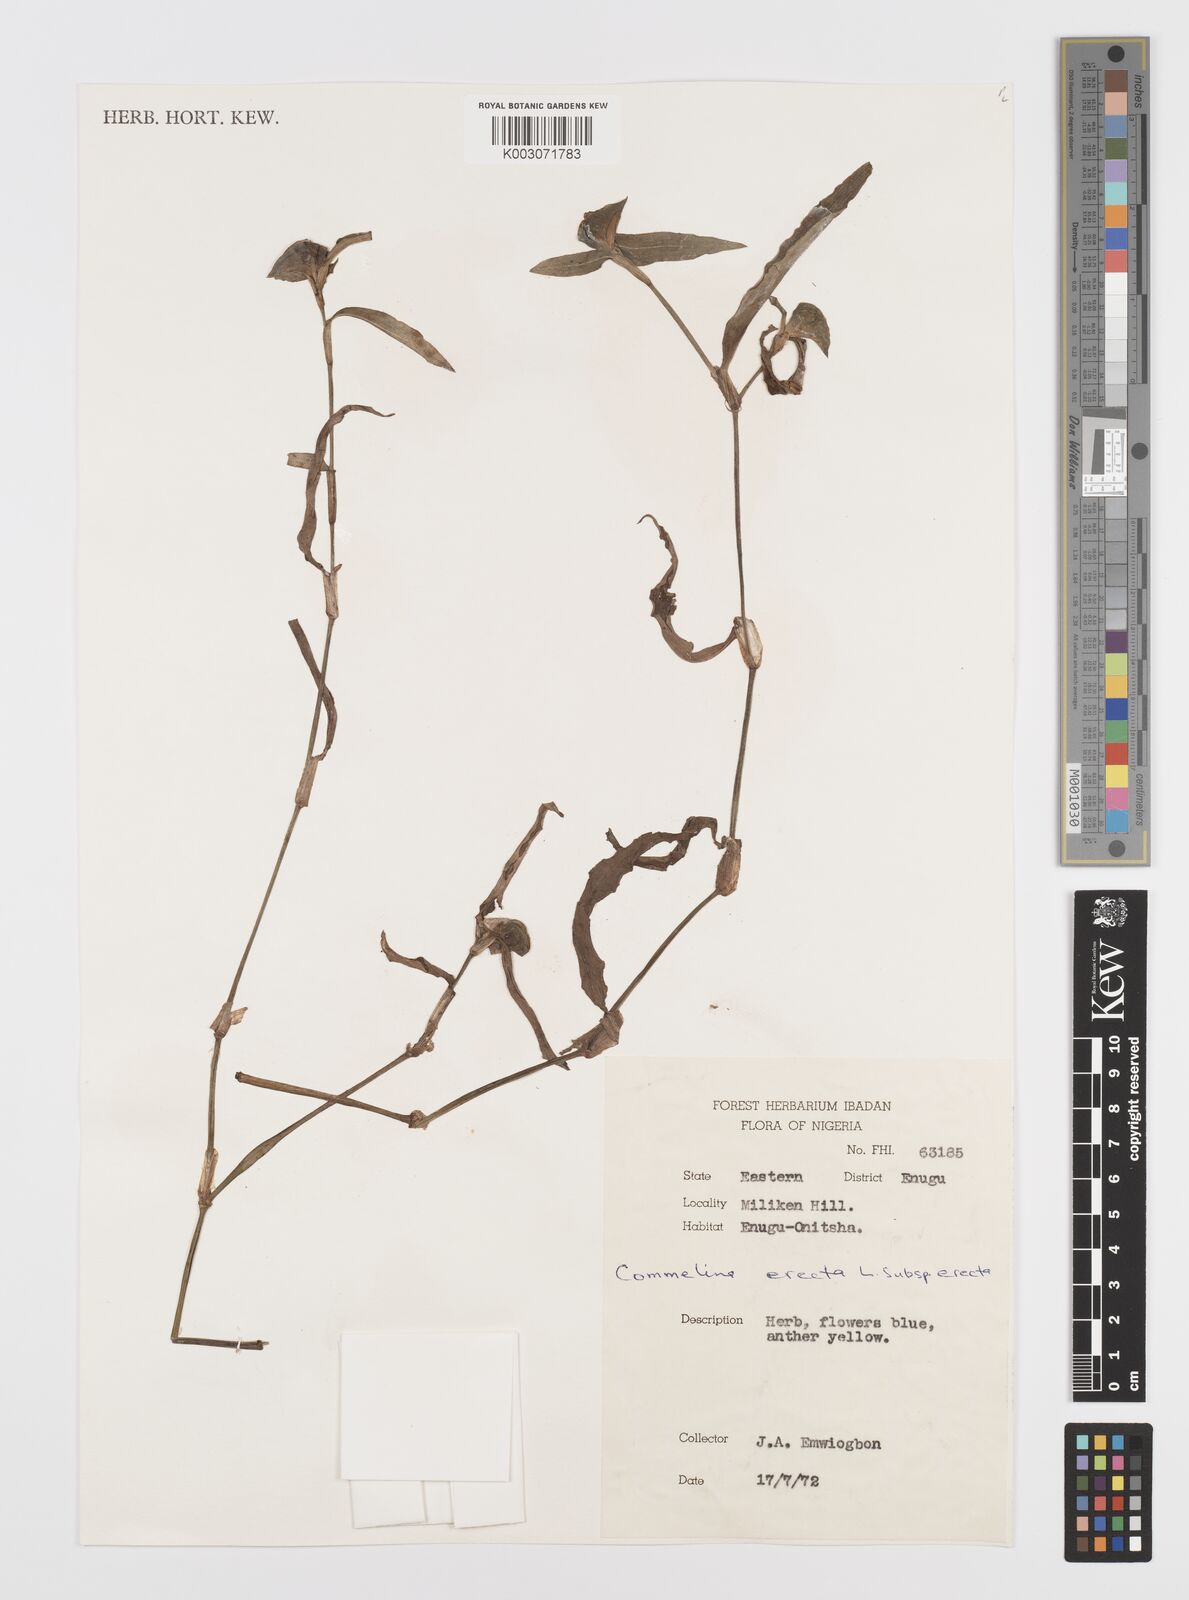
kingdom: Plantae
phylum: Tracheophyta
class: Liliopsida
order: Commelinales
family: Commelinaceae
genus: Commelina
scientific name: Commelina erecta
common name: Blousel blommetjie
